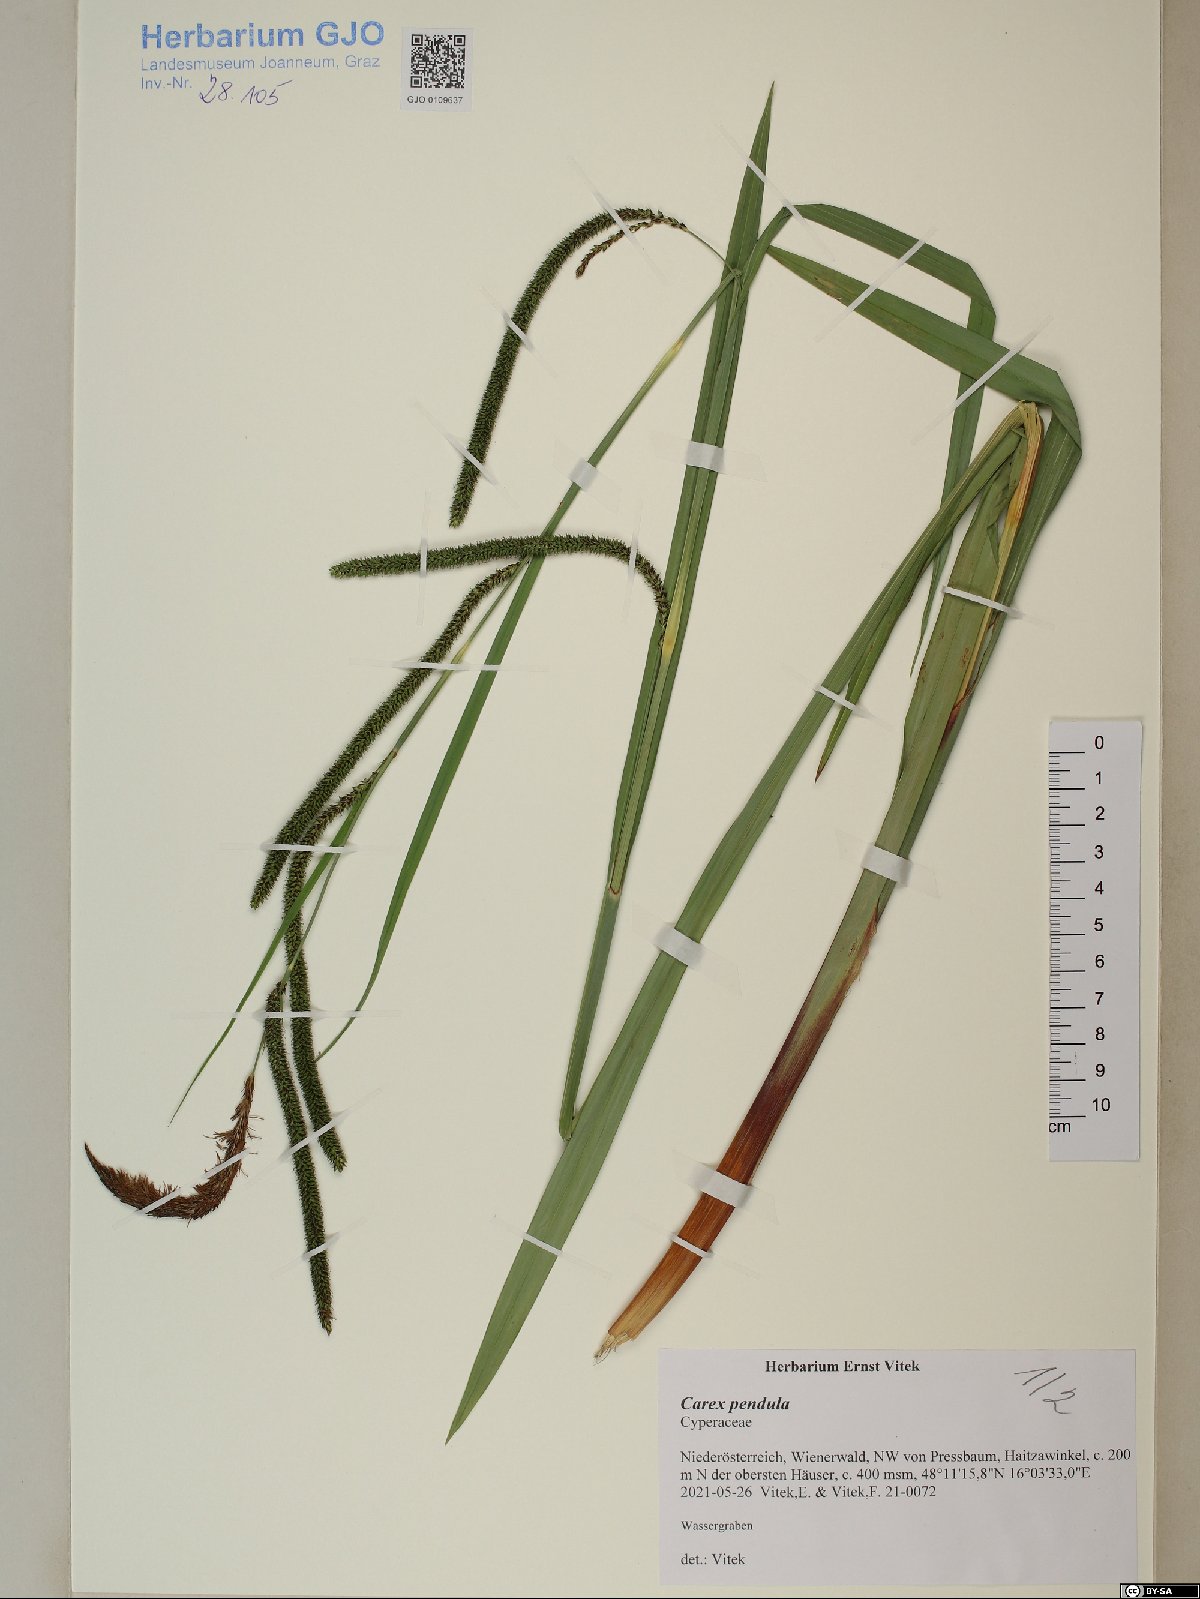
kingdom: Plantae
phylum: Tracheophyta
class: Liliopsida
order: Poales
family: Cyperaceae
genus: Carex
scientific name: Carex pendula
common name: Pendulous sedge
